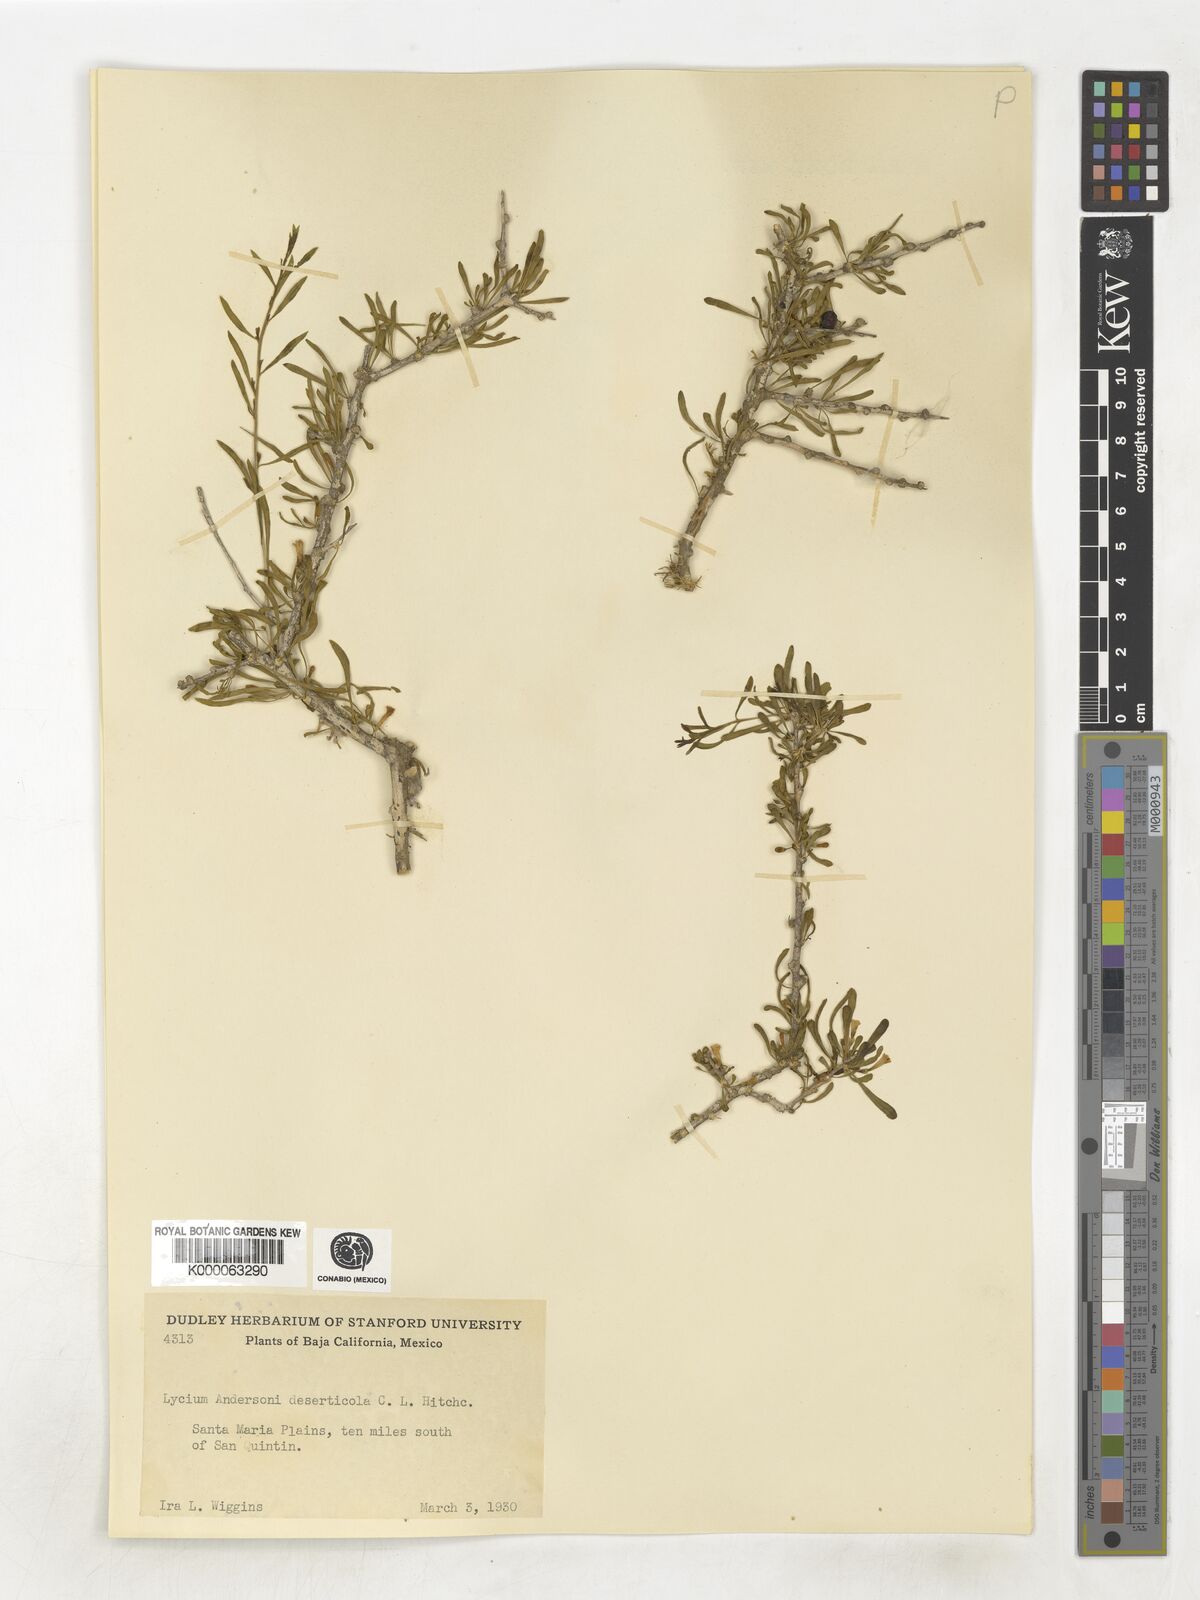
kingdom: Plantae
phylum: Tracheophyta
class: Magnoliopsida
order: Solanales
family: Solanaceae
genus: Lycium
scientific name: Lycium andersonii
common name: Water-jacket
